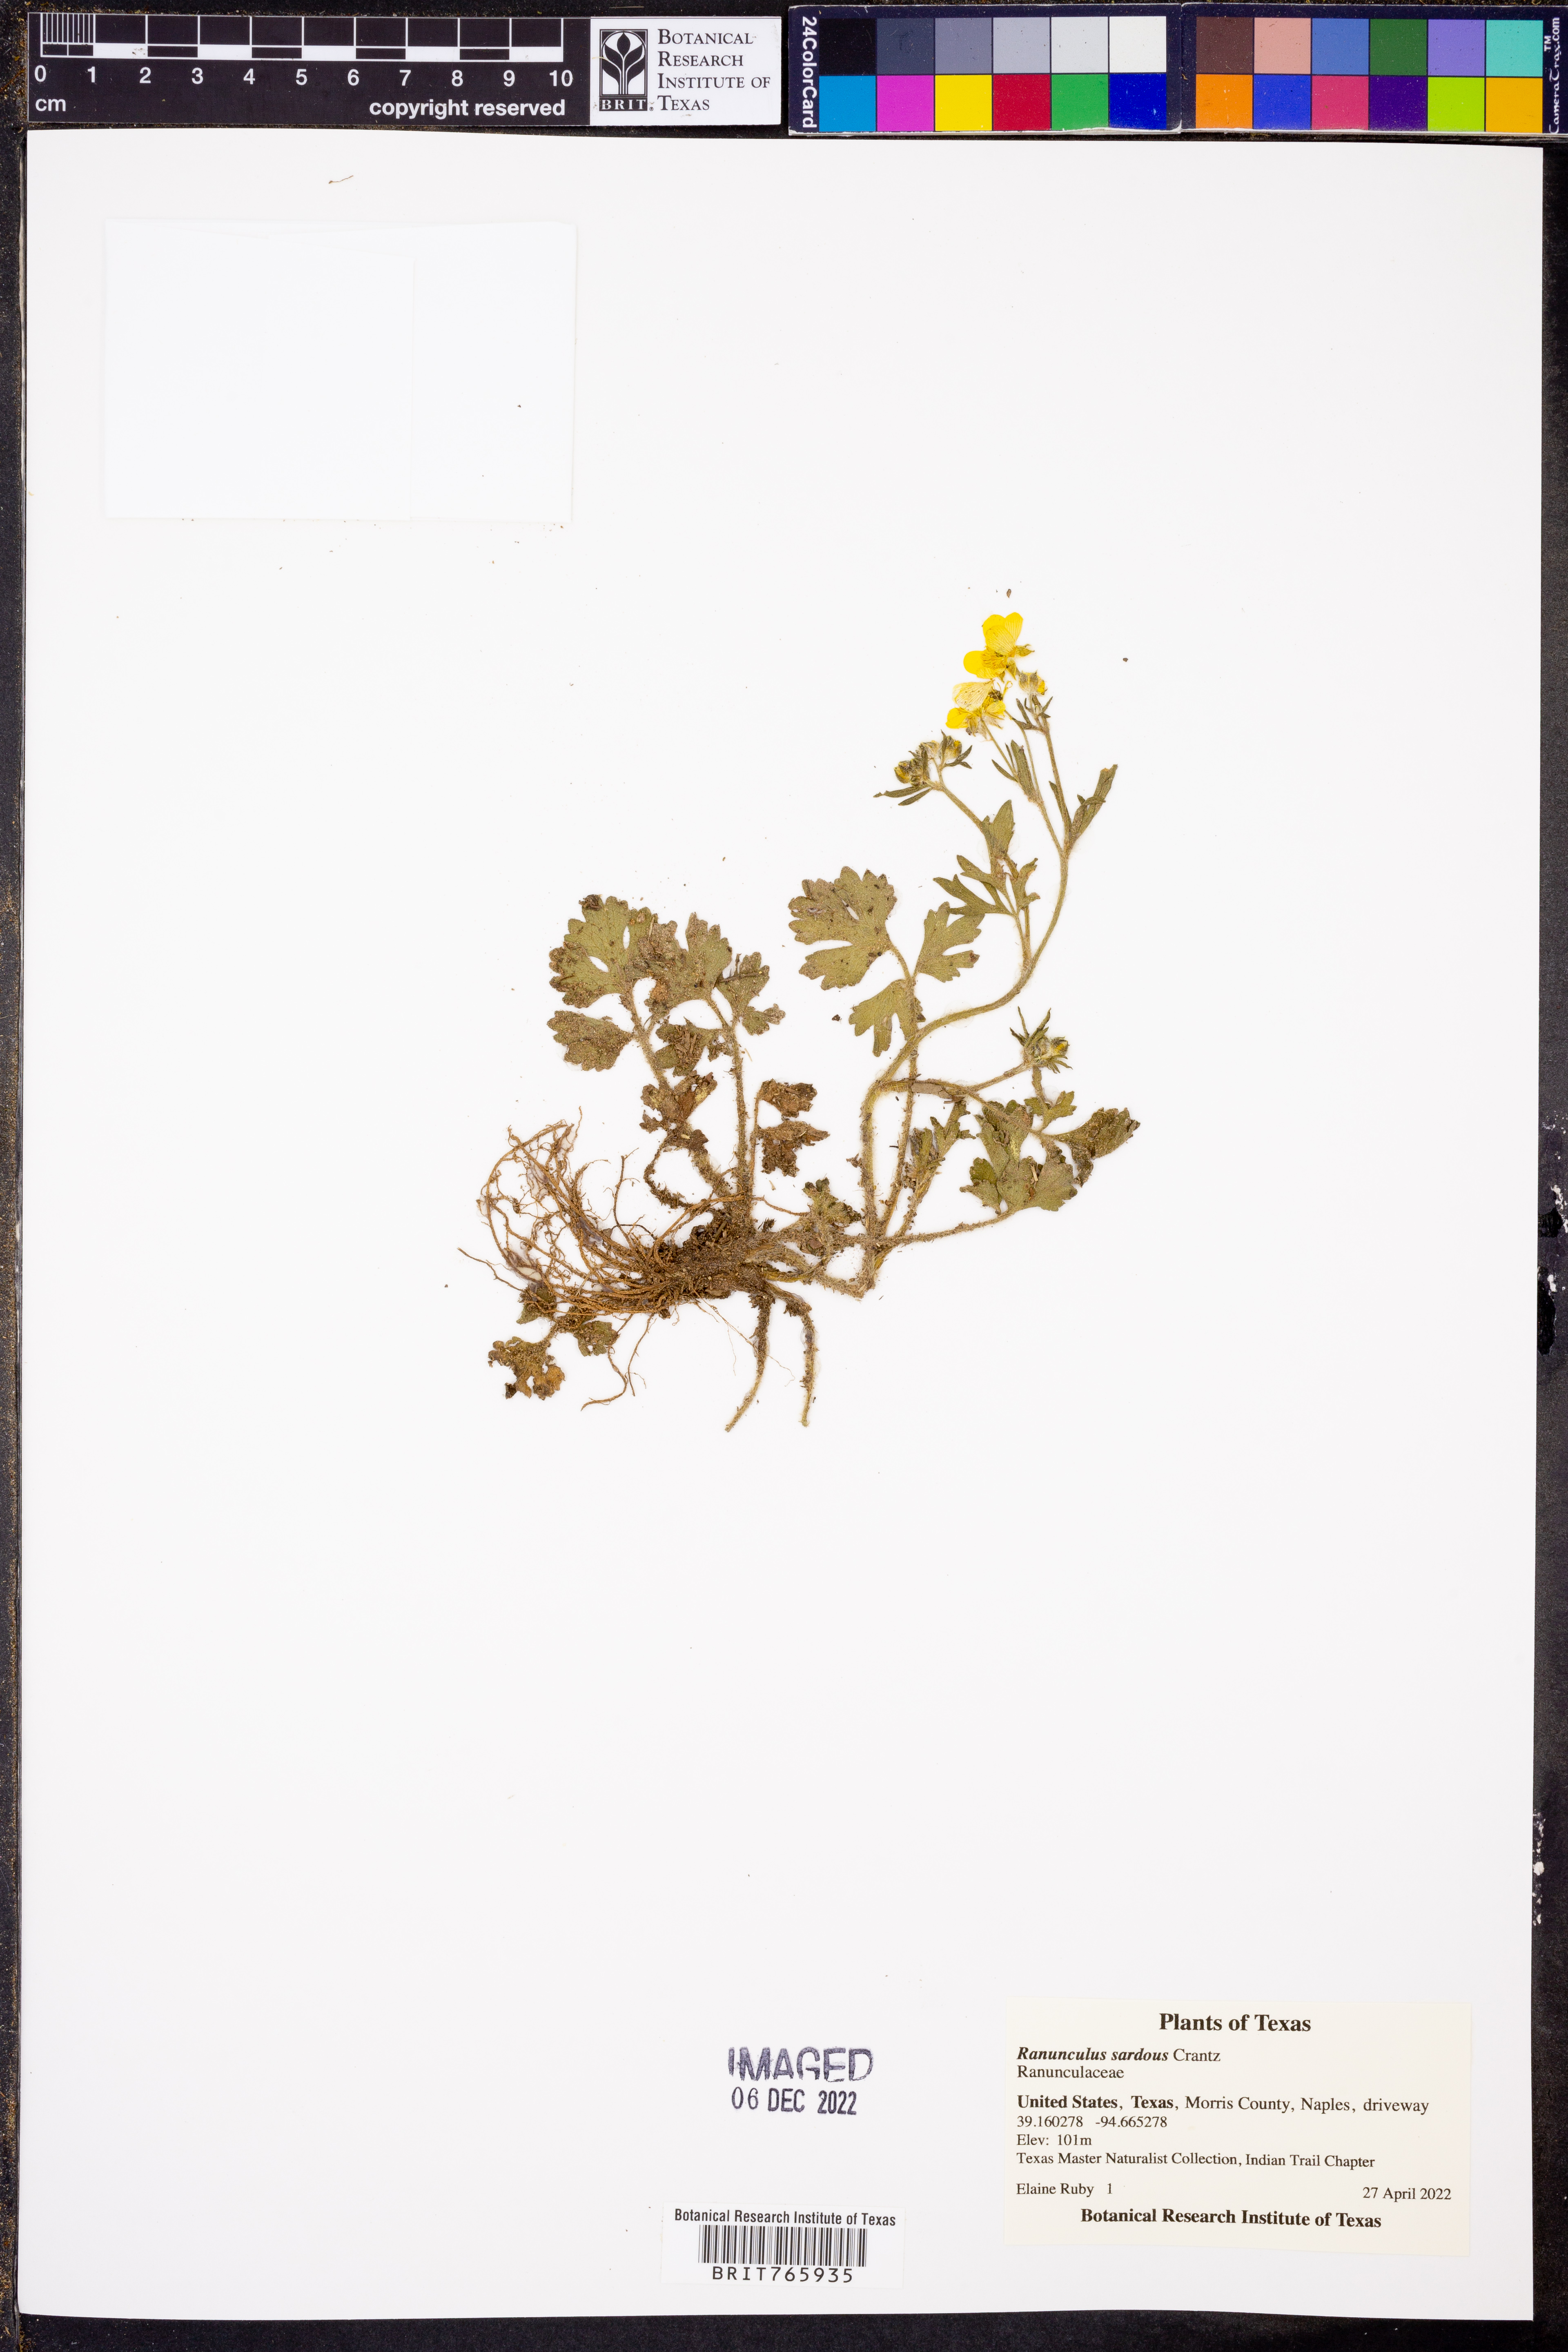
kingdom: Plantae
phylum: Tracheophyta
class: Magnoliopsida
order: Ranunculales
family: Ranunculaceae
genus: Ranunculus
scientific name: Ranunculus sardous
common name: Hairy buttercup
